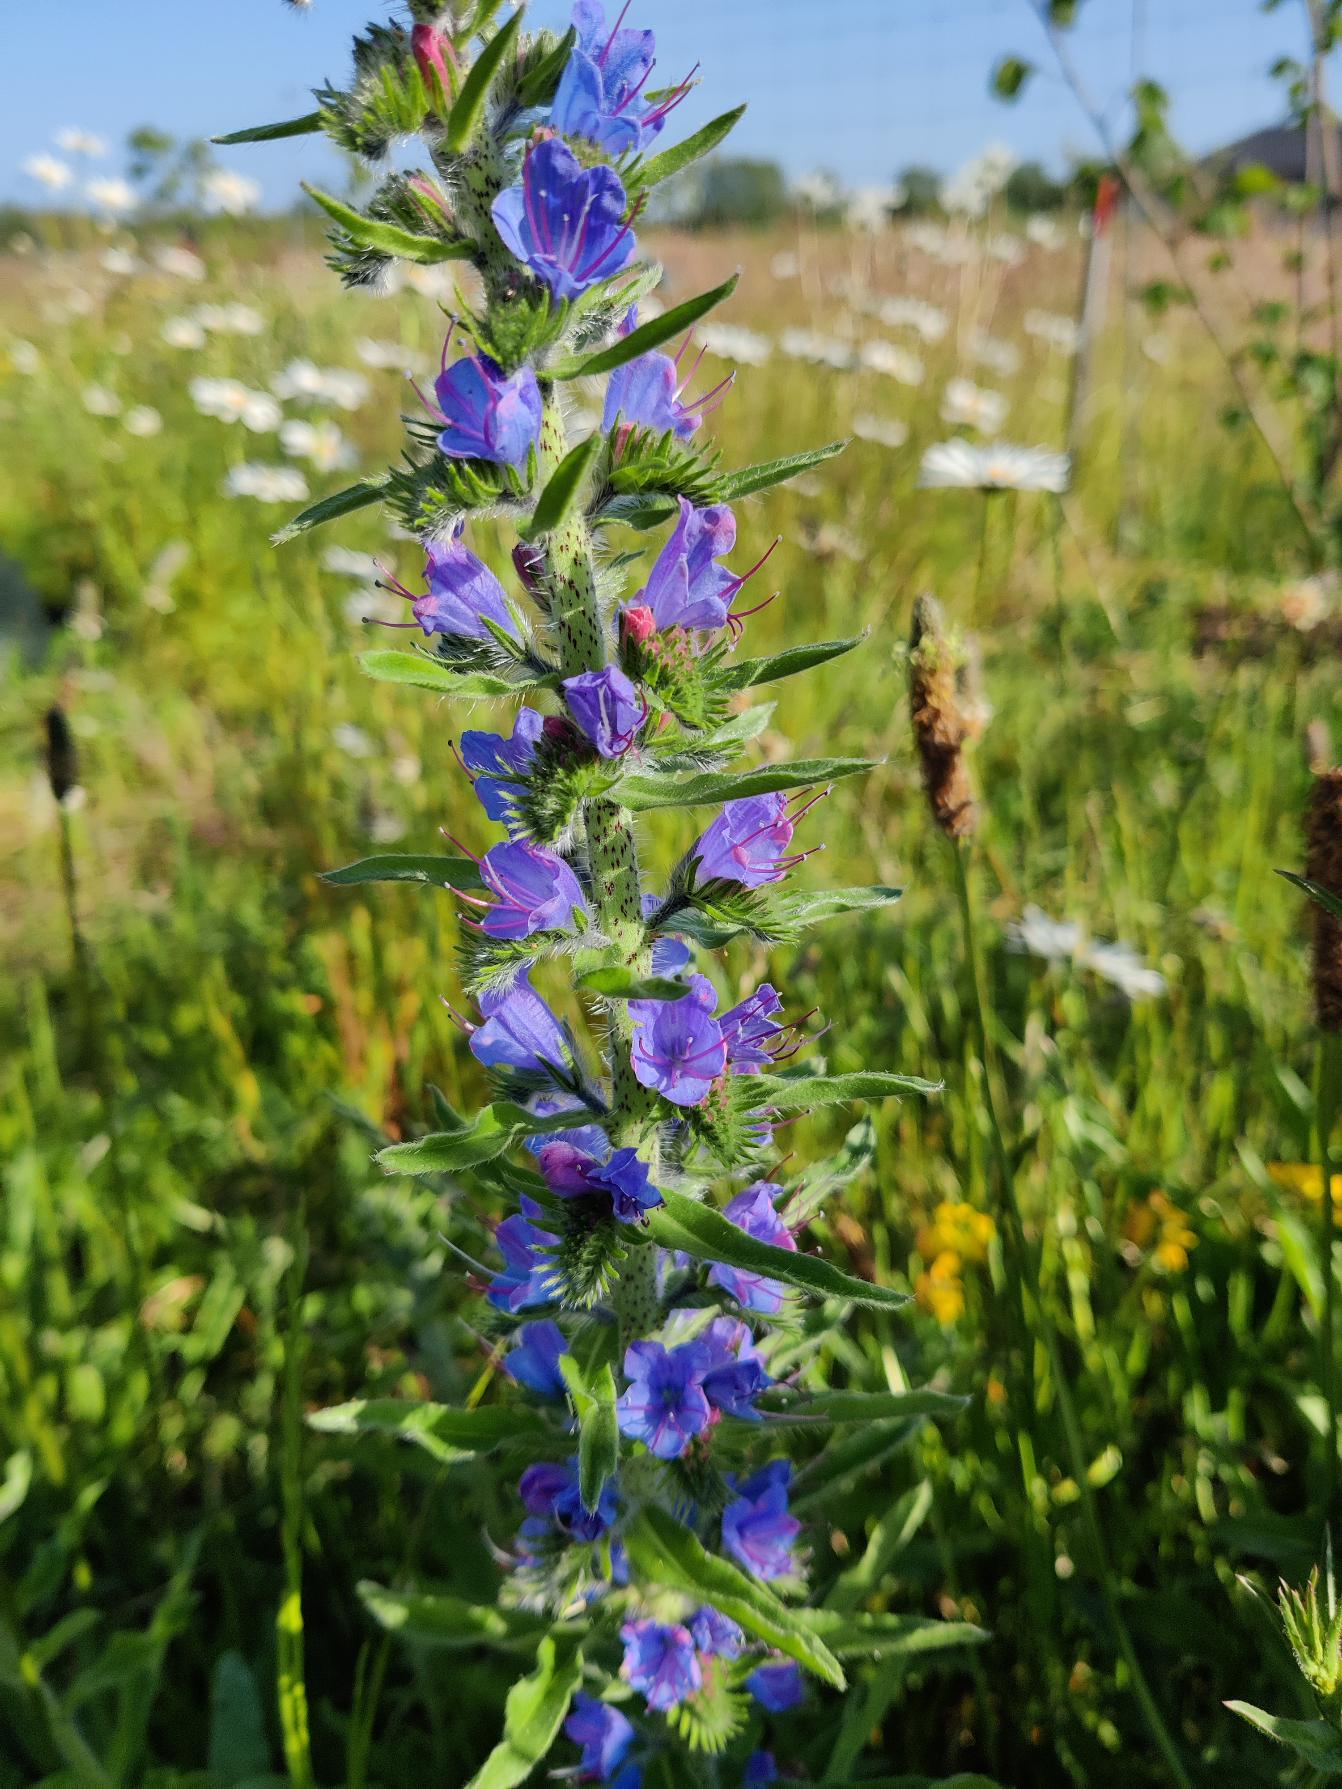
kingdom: Plantae
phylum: Tracheophyta
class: Magnoliopsida
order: Boraginales
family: Boraginaceae
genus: Echium
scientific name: Echium vulgare
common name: Slangehoved
